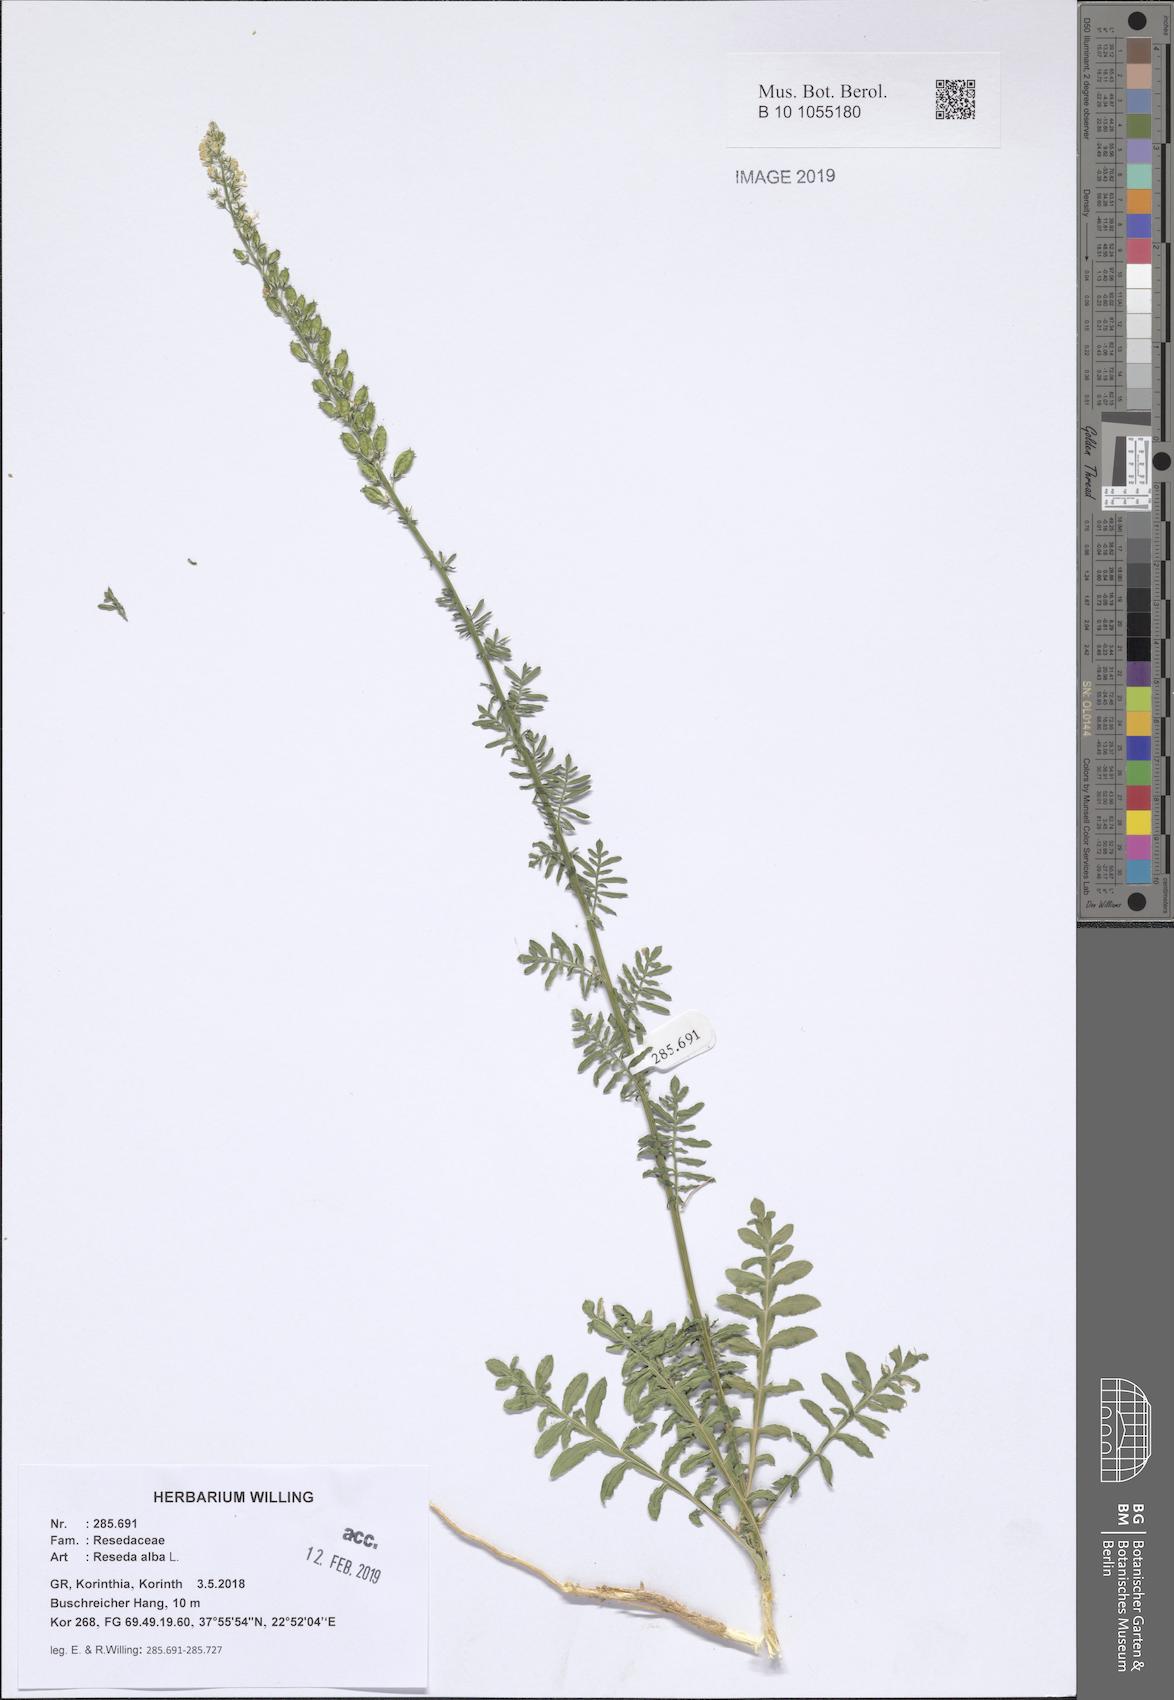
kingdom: Plantae
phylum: Tracheophyta
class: Magnoliopsida
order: Brassicales
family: Resedaceae
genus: Reseda
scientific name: Reseda alba
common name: White mignonette
